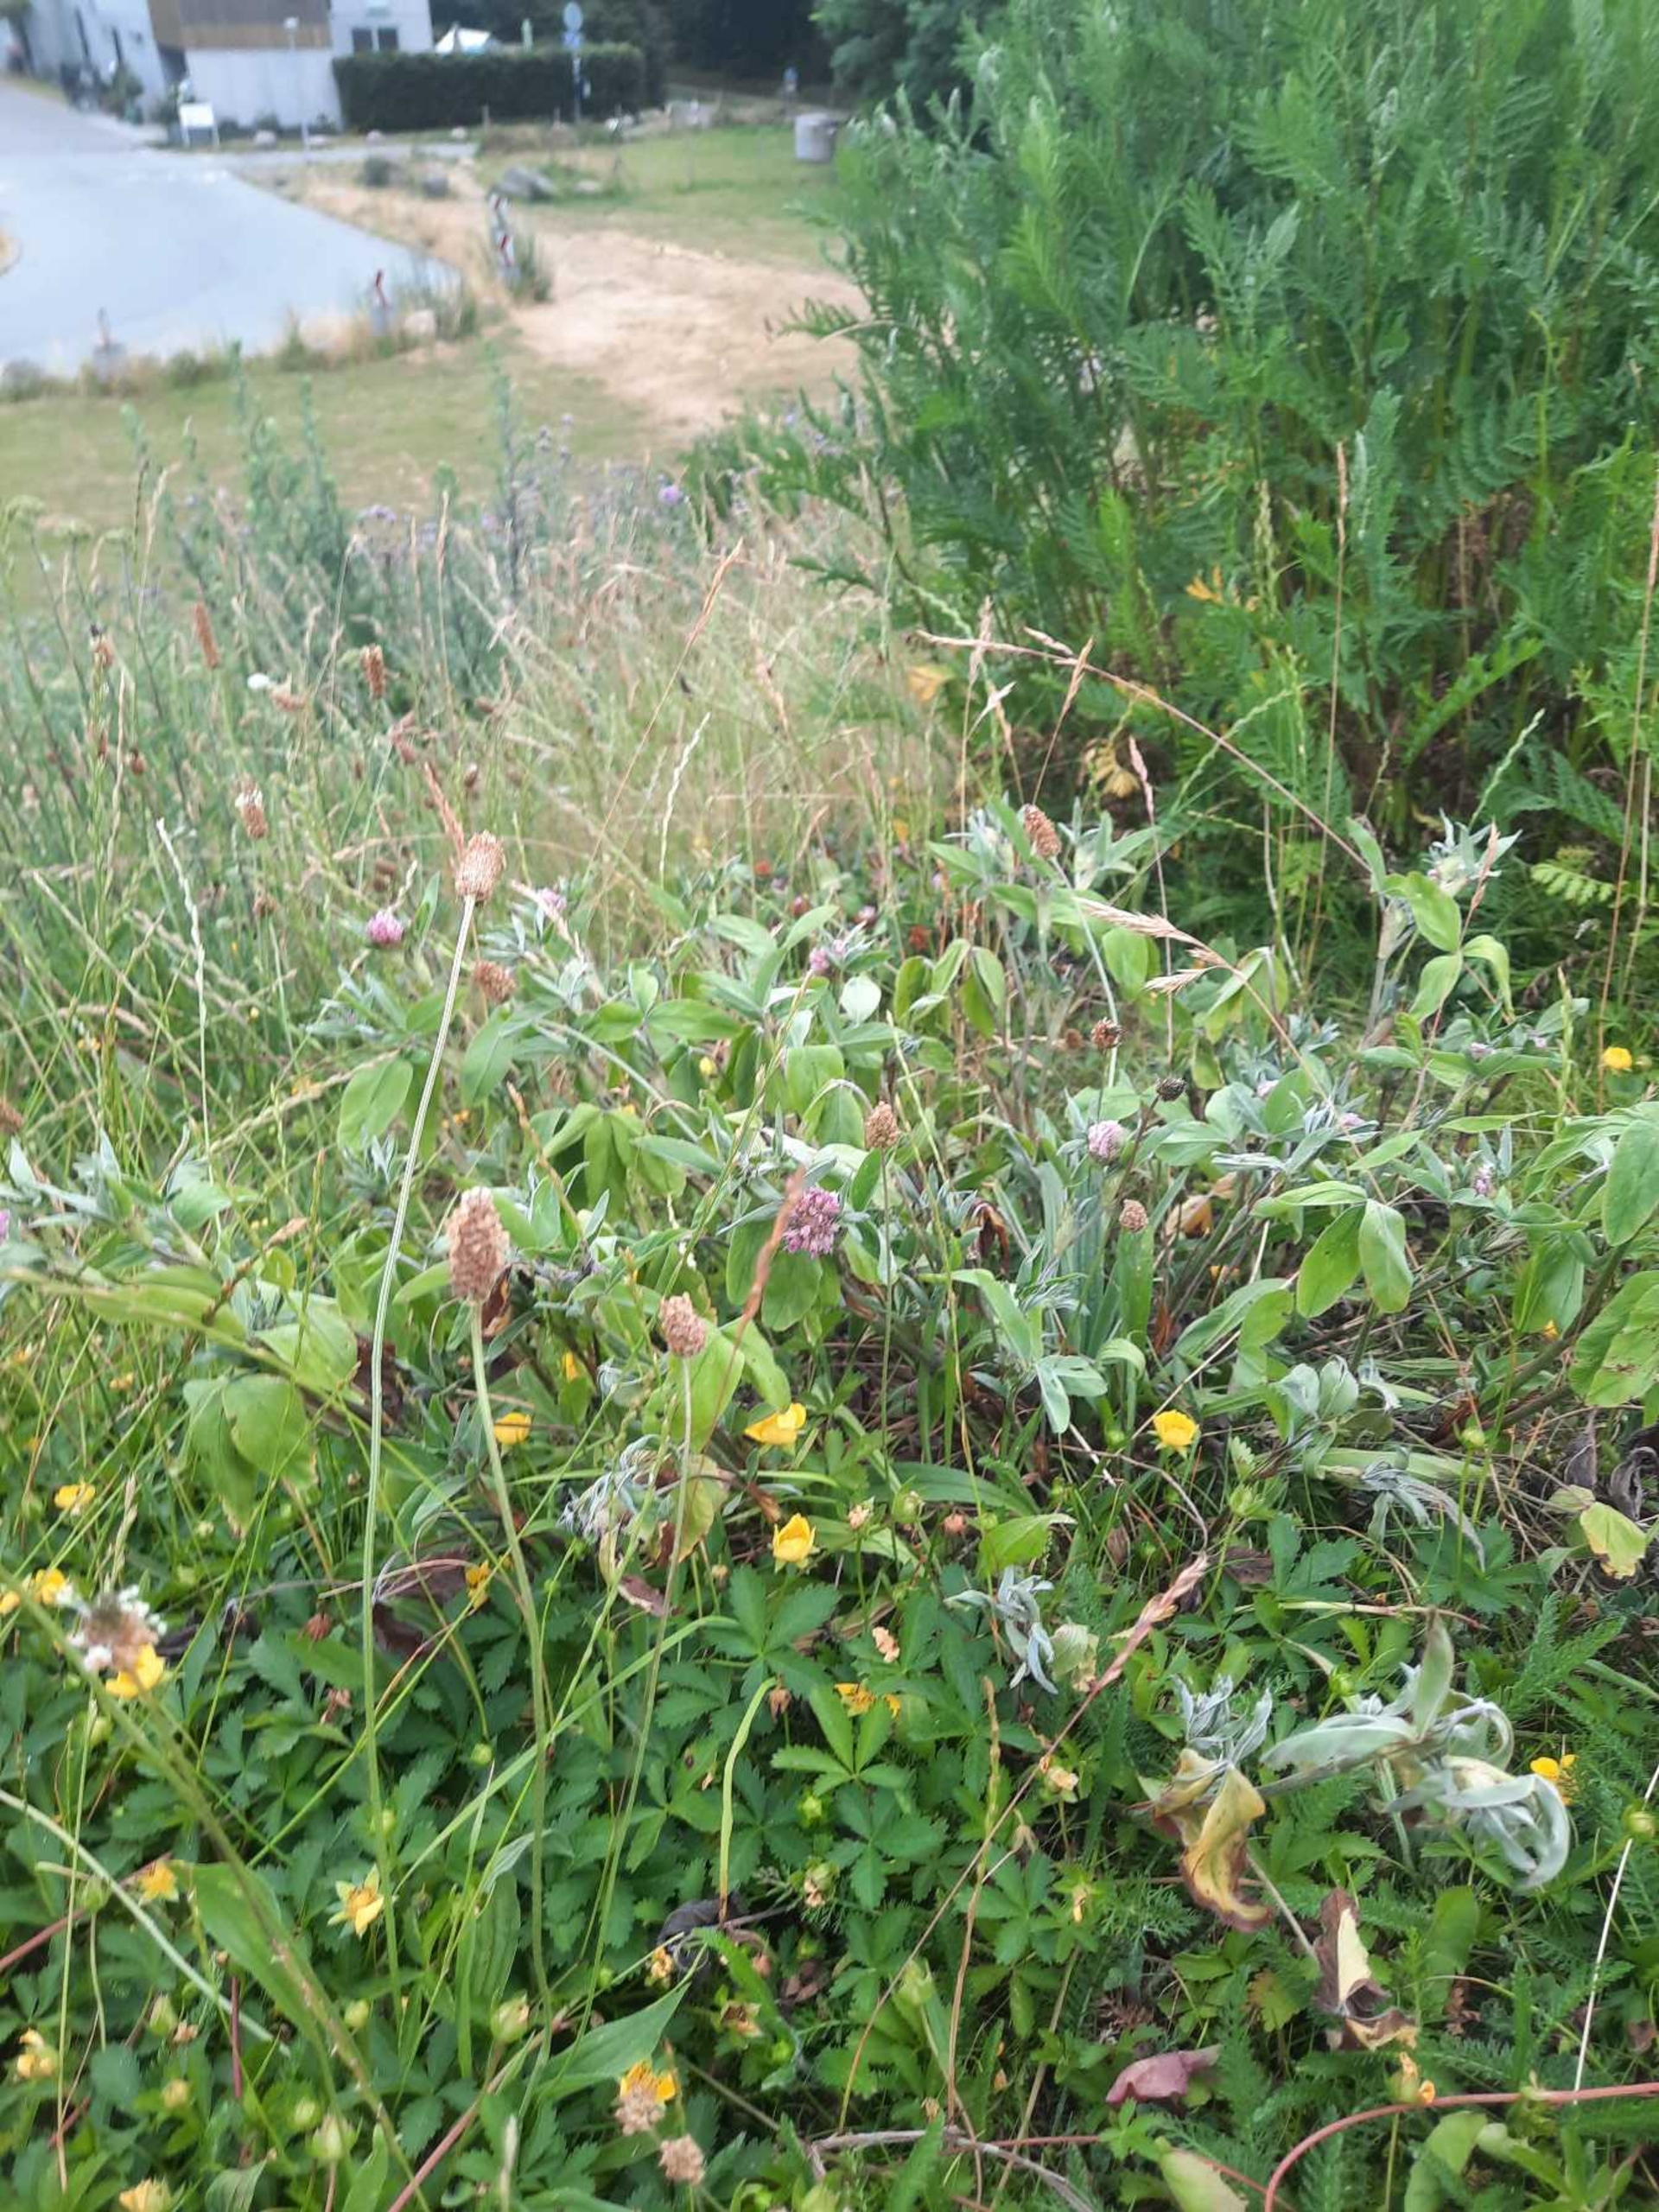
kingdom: Plantae
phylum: Tracheophyta
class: Magnoliopsida
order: Fabales
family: Fabaceae
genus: Trifolium
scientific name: Trifolium pratense
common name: Rød-kløver
